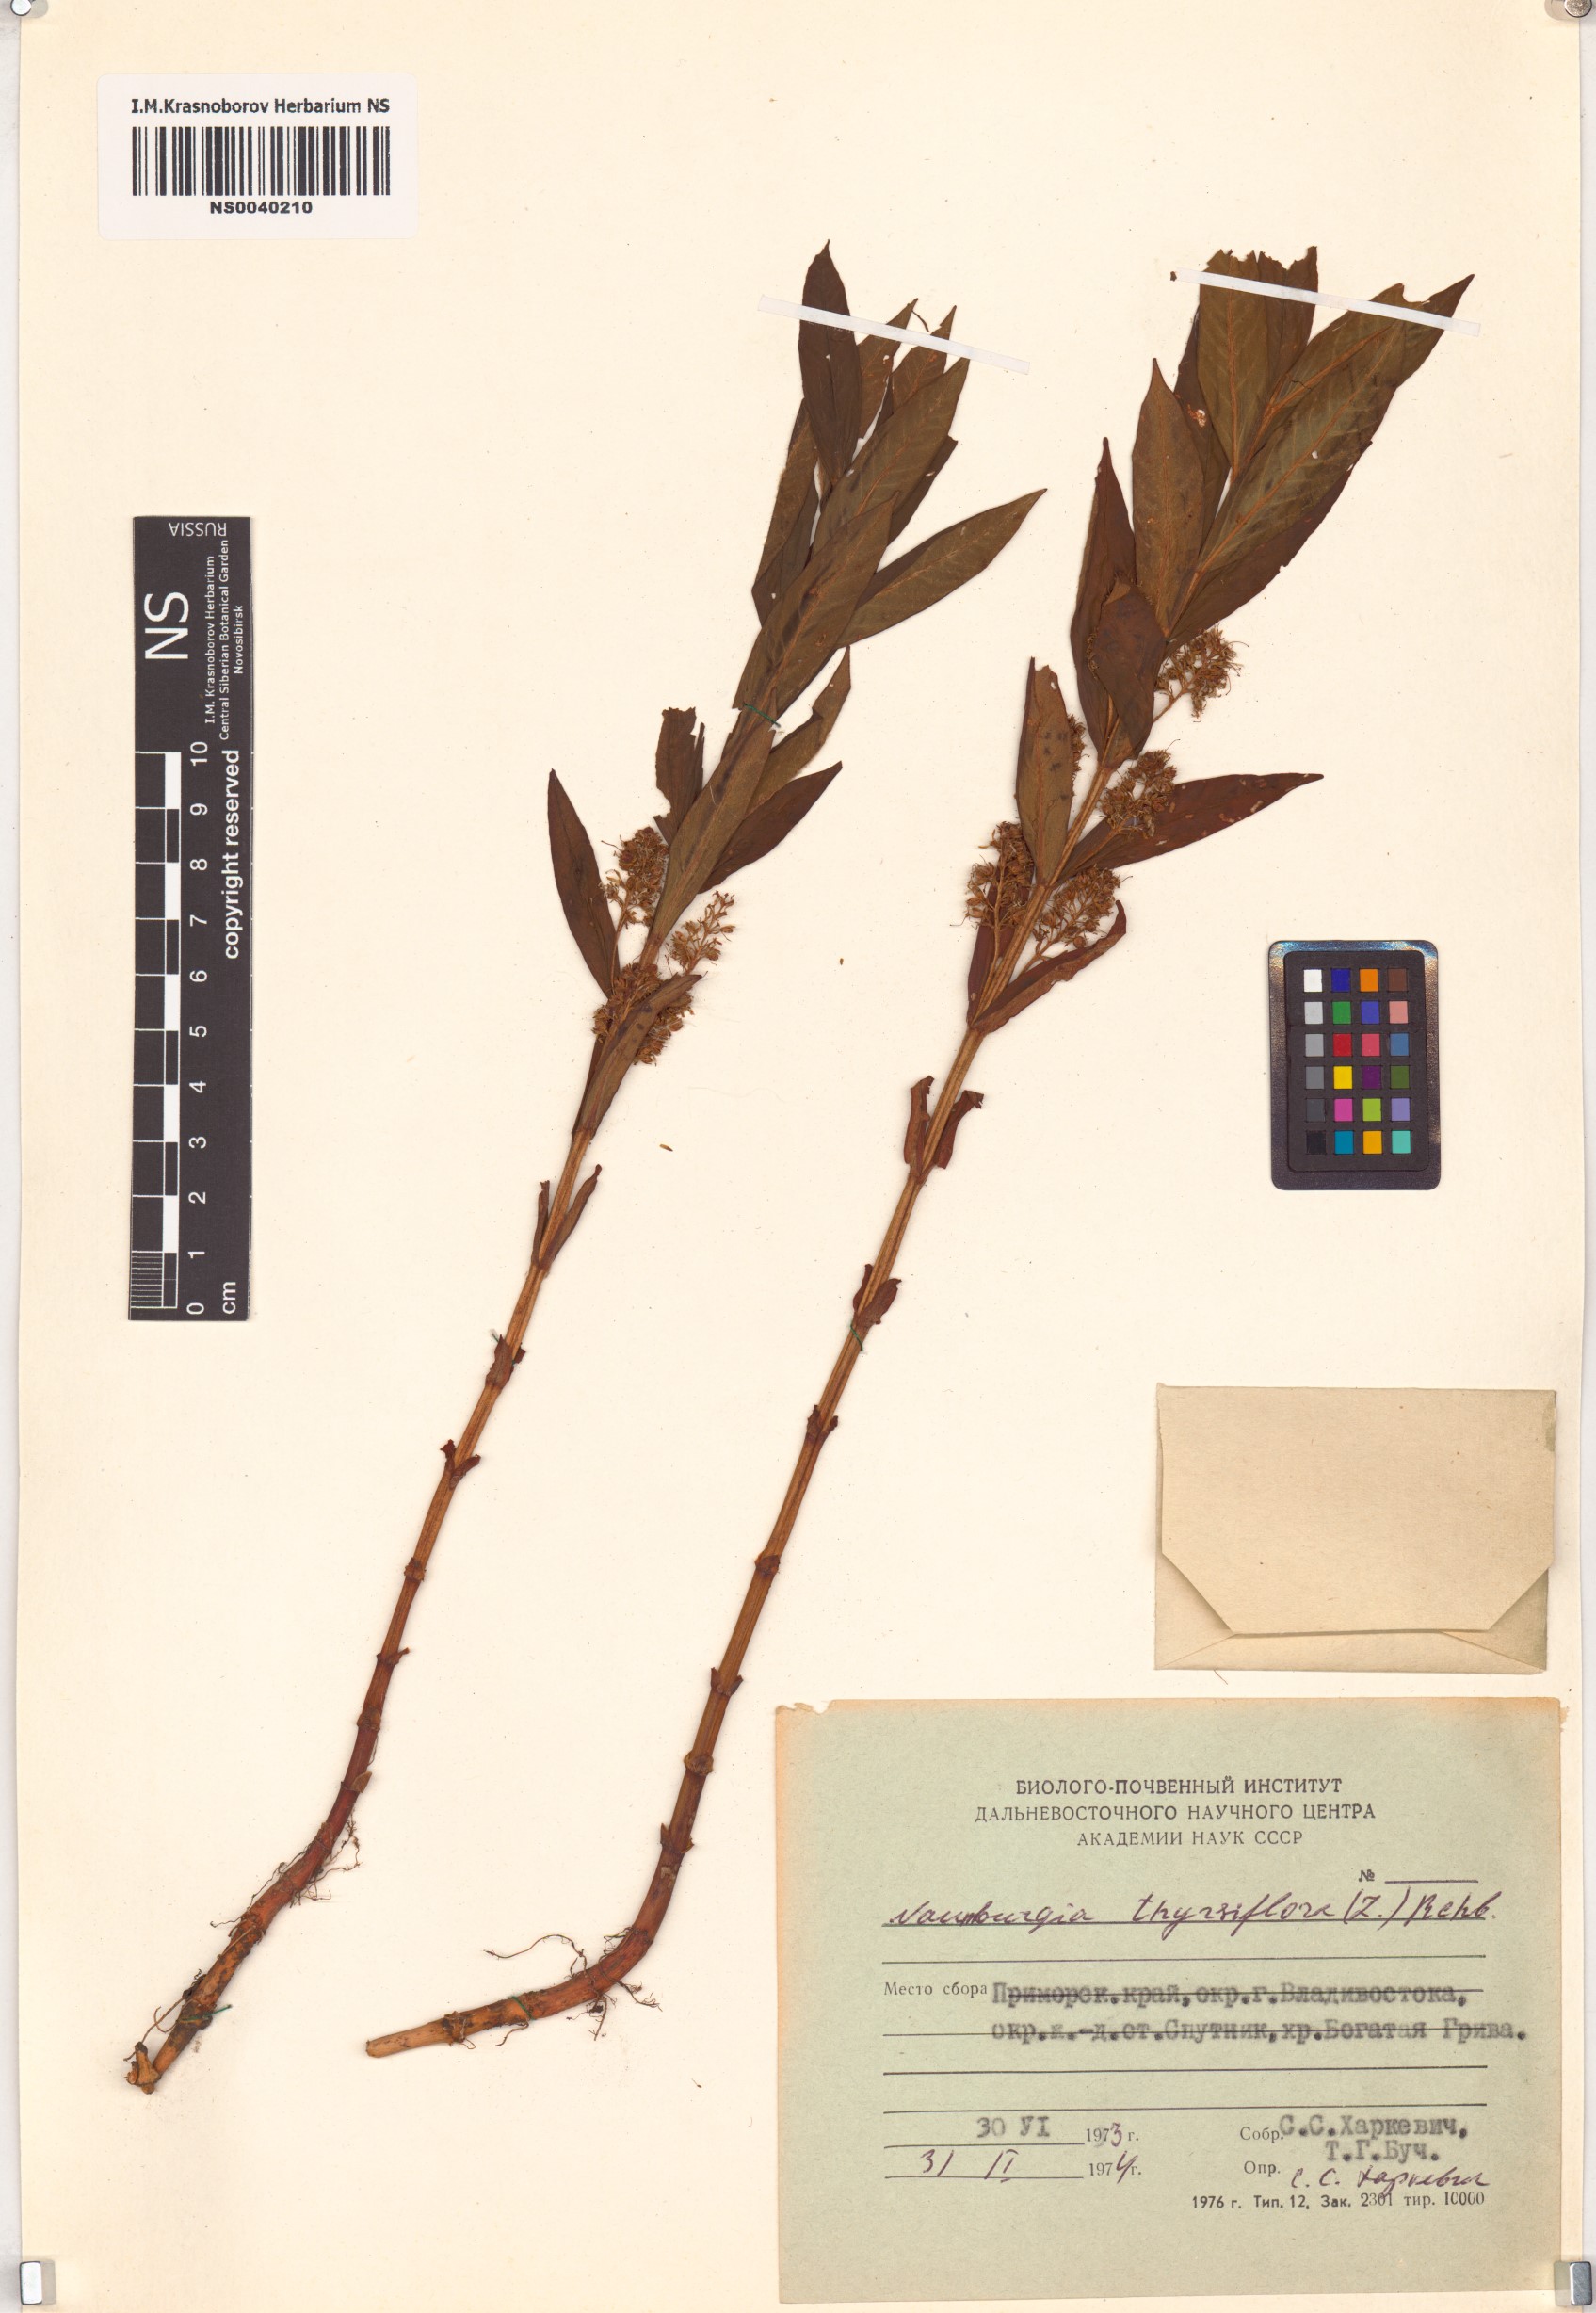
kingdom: Plantae
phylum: Tracheophyta
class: Magnoliopsida
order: Ericales
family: Primulaceae
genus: Lysimachia
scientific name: Lysimachia thyrsiflora
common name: Tufted loosestrife
